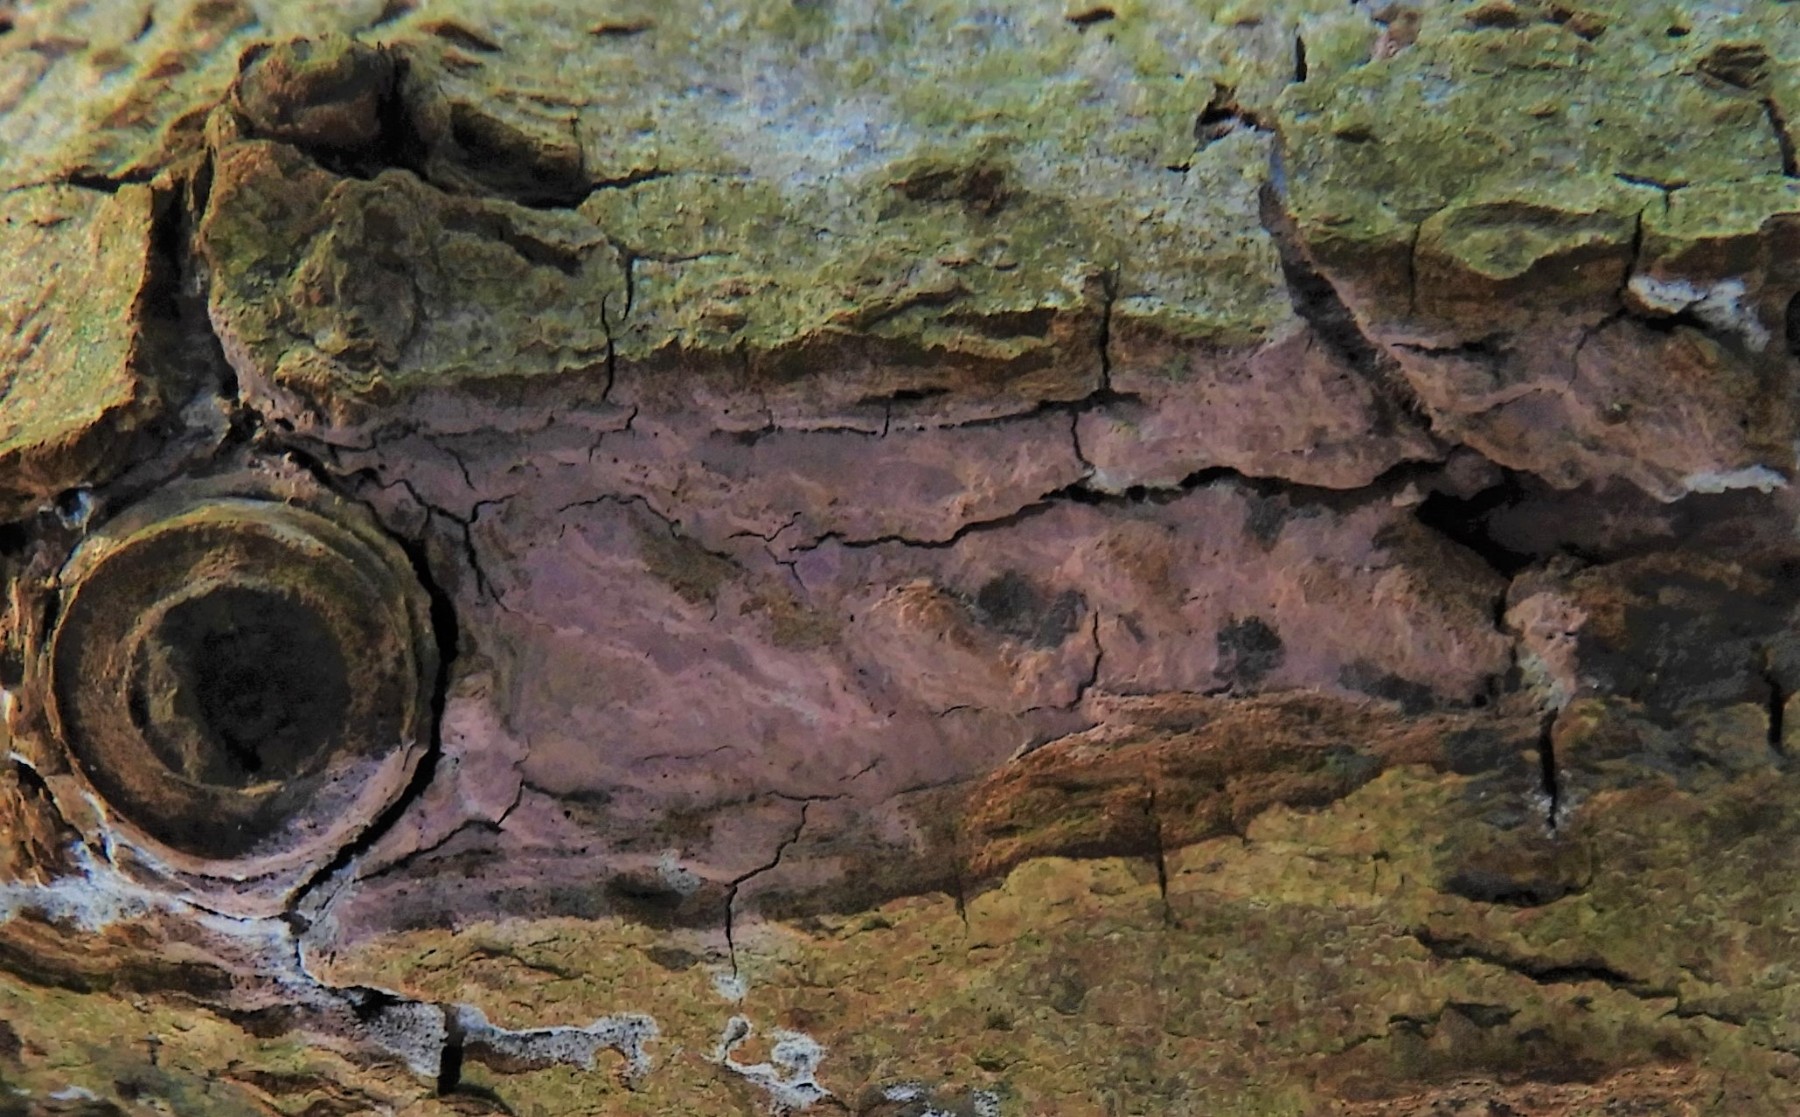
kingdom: Fungi
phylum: Basidiomycota
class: Agaricomycetes
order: Cantharellales
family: Tulasnellaceae
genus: Tulasnella
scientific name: Tulasnella violea
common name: violet ballonhinde
